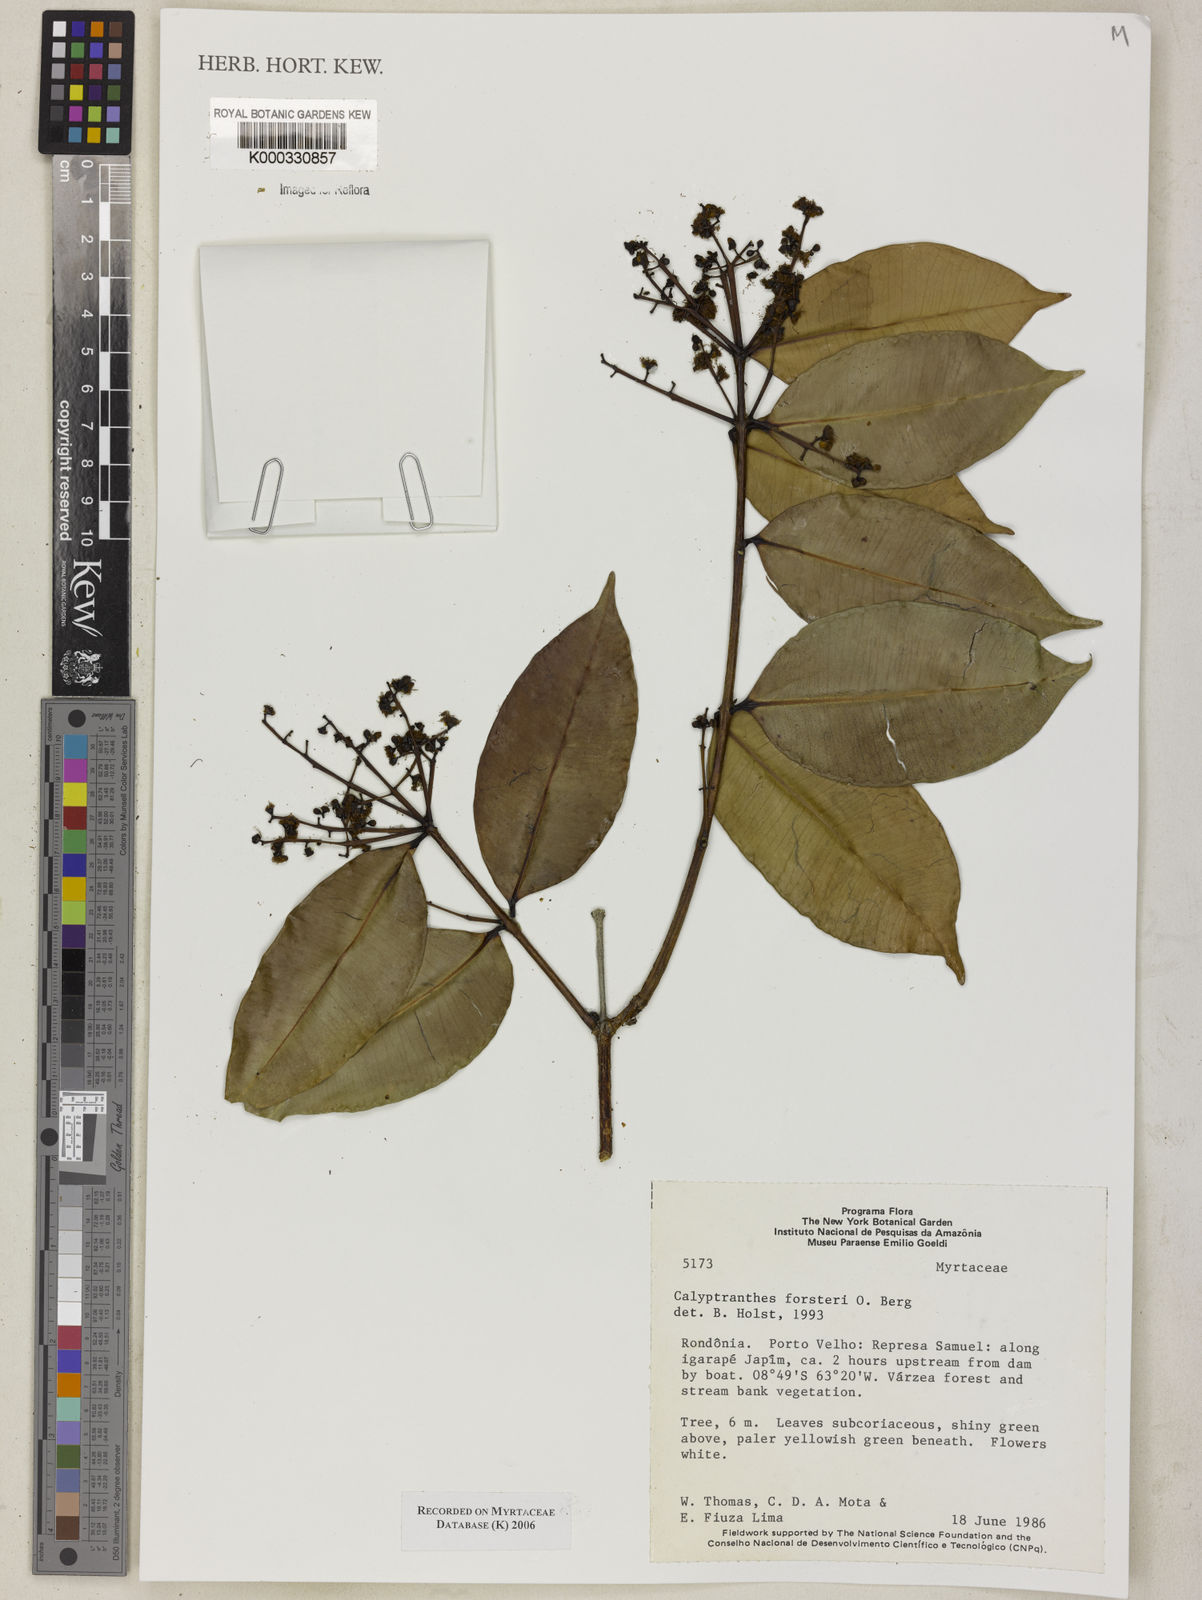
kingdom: Plantae
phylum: Tracheophyta
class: Magnoliopsida
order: Myrtales
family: Myrtaceae
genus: Myrcia
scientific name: Myrcia forsteri
